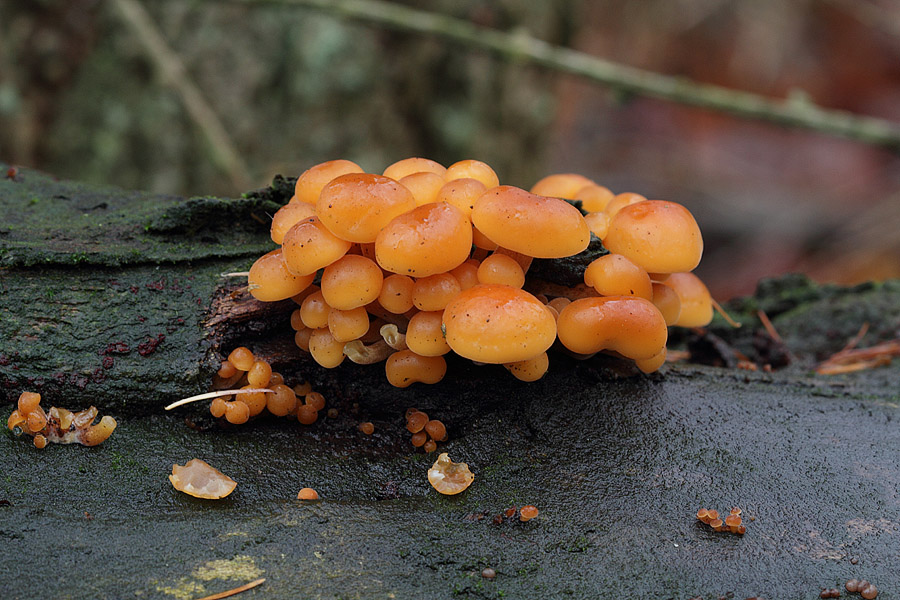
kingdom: Fungi
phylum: Basidiomycota
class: Agaricomycetes
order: Agaricales
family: Physalacriaceae
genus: Flammulina
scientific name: Flammulina velutipes
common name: gul fløjlsfod
